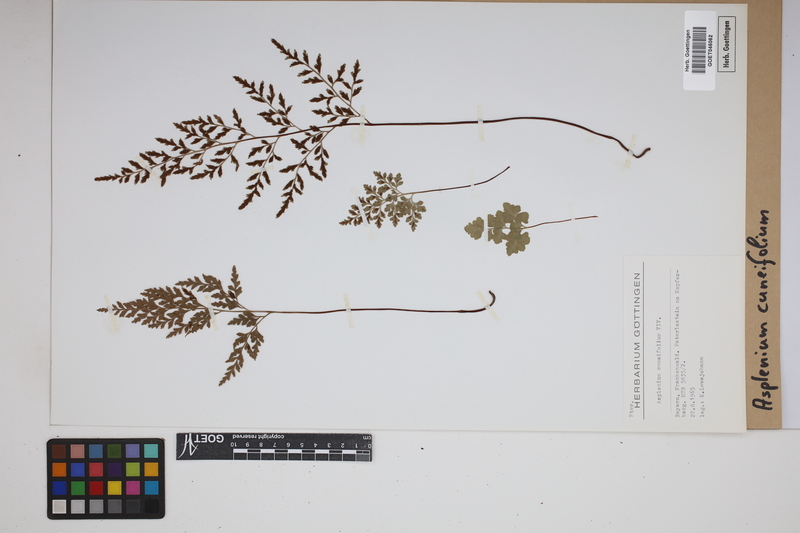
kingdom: Plantae
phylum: Tracheophyta
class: Polypodiopsida
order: Polypodiales
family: Aspleniaceae
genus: Asplenium
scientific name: Asplenium cuneifolium
